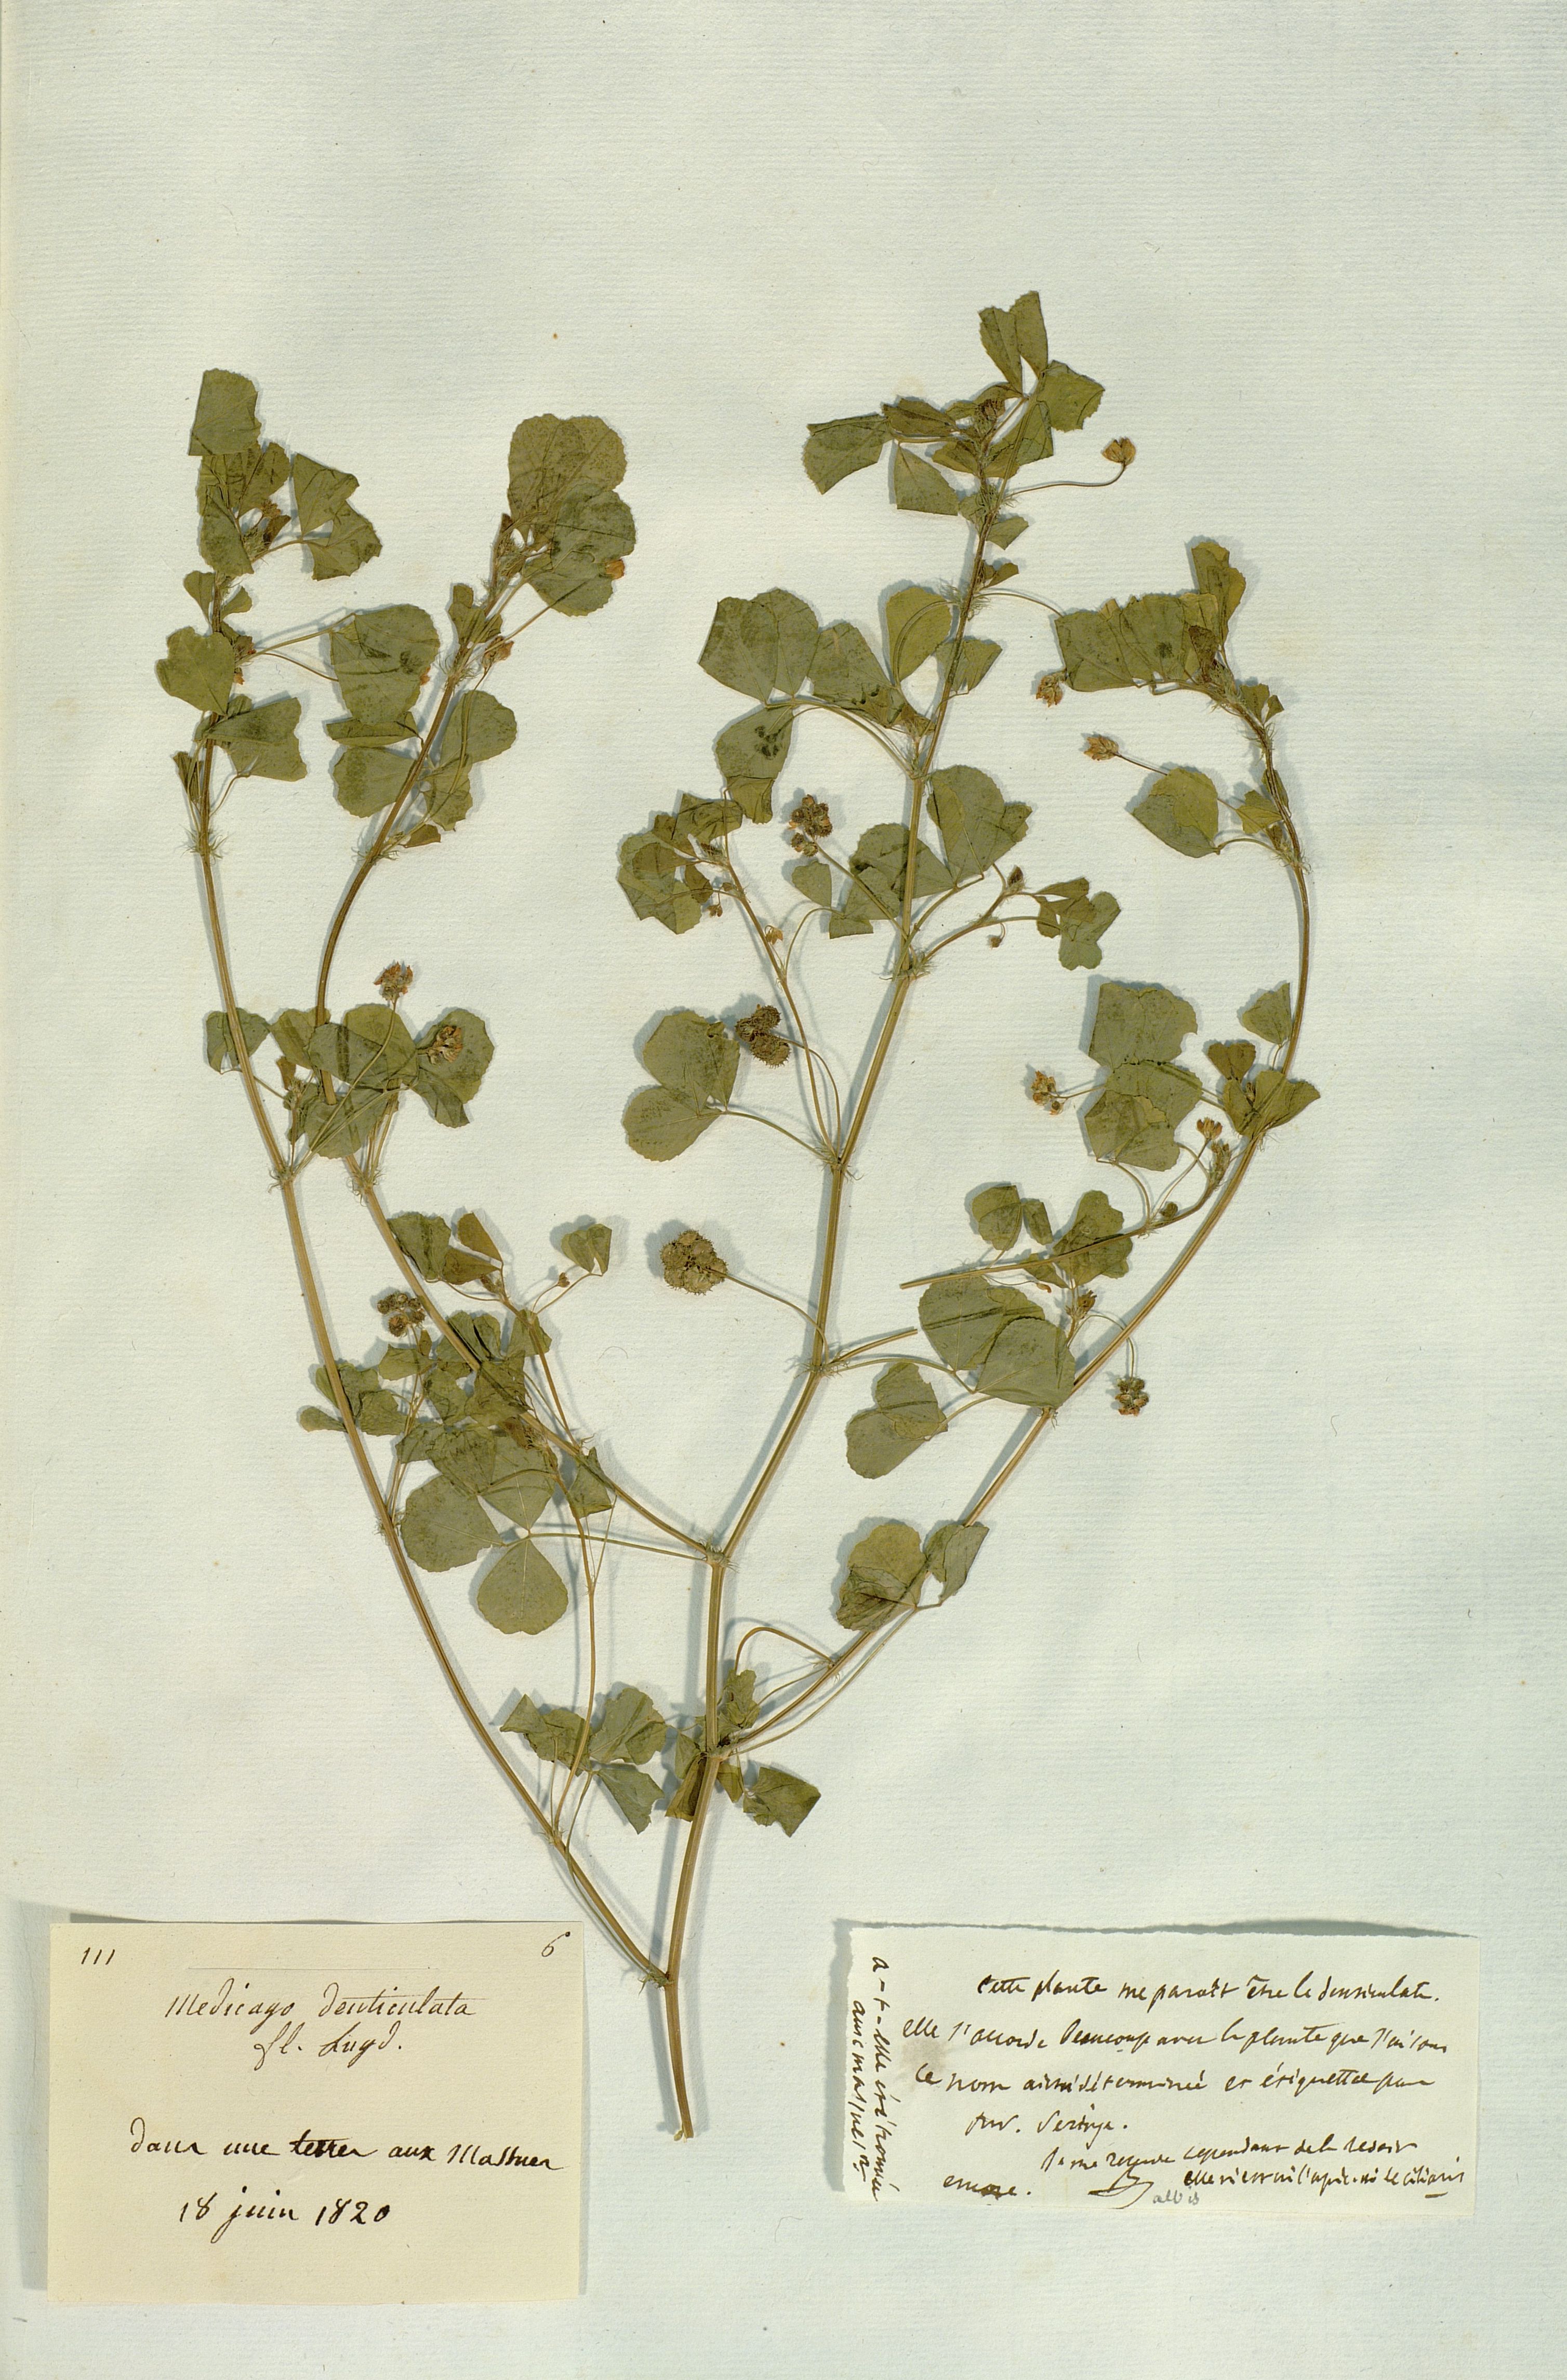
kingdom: Plantae
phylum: Tracheophyta
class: Magnoliopsida
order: Fabales
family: Fabaceae
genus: Medicago
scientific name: Medicago polymorpha
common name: Burclover
